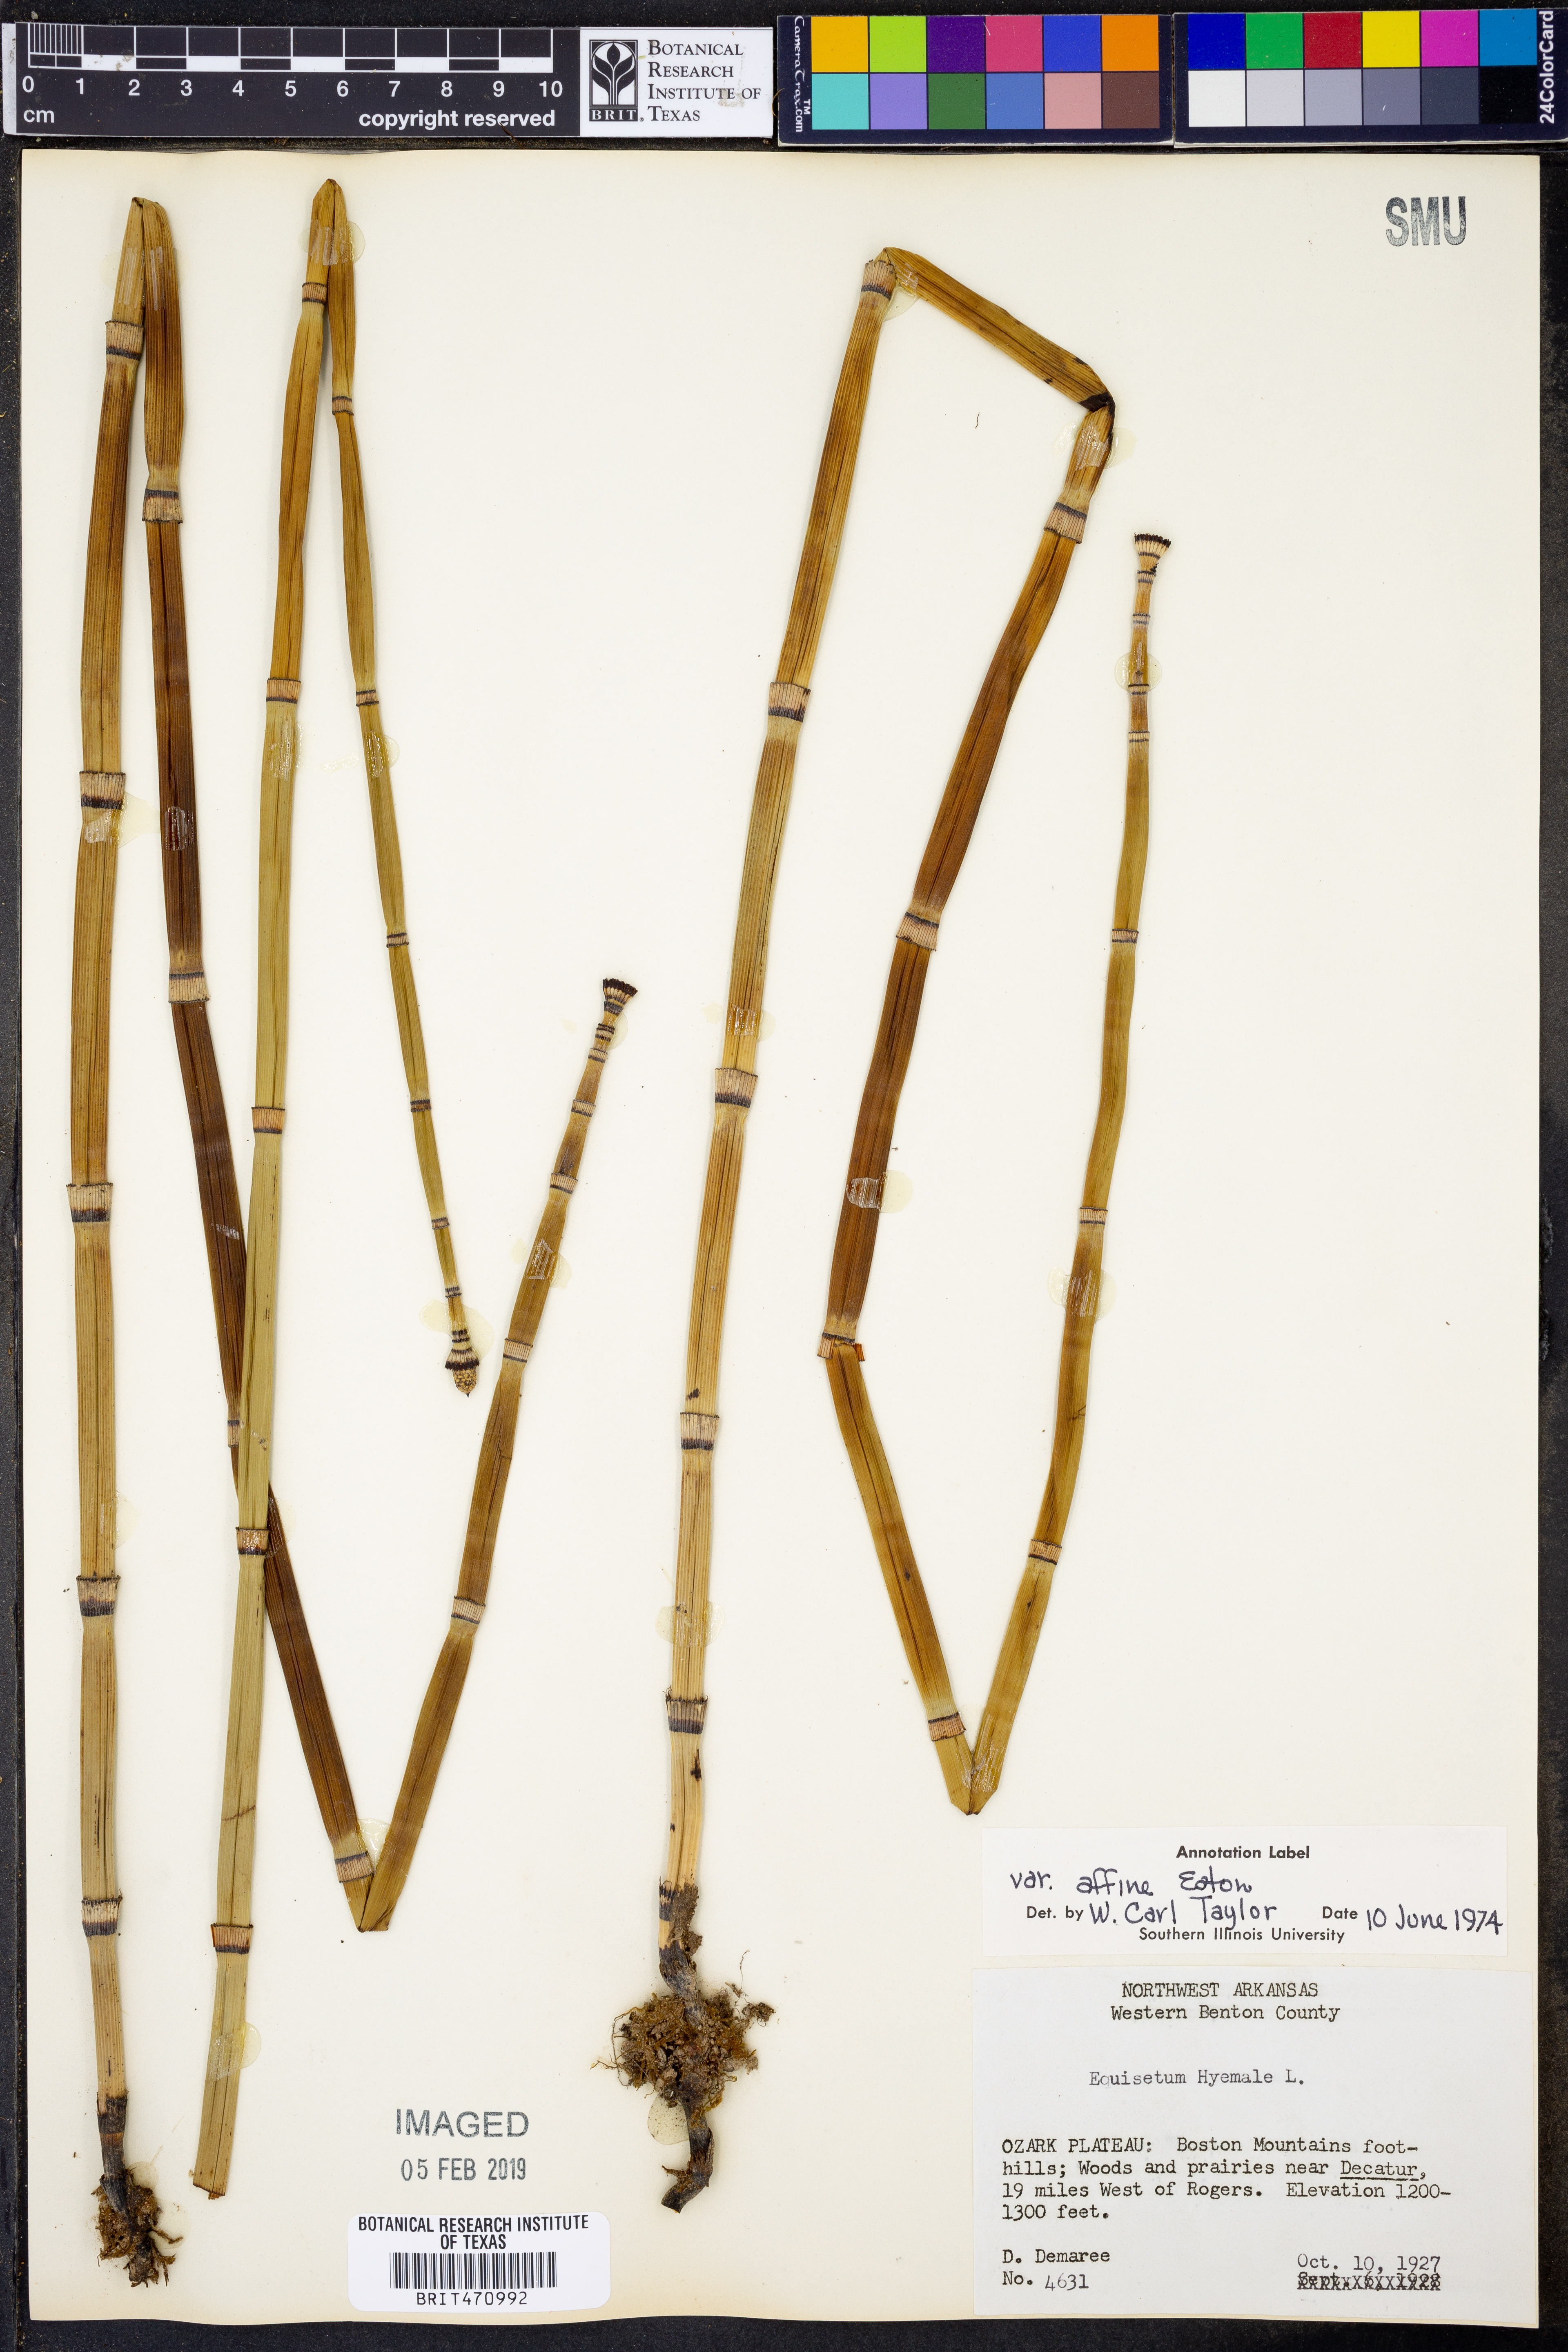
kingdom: Plantae
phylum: Tracheophyta
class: Polypodiopsida
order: Equisetales
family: Equisetaceae
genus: Equisetum
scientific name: Equisetum praealtum
